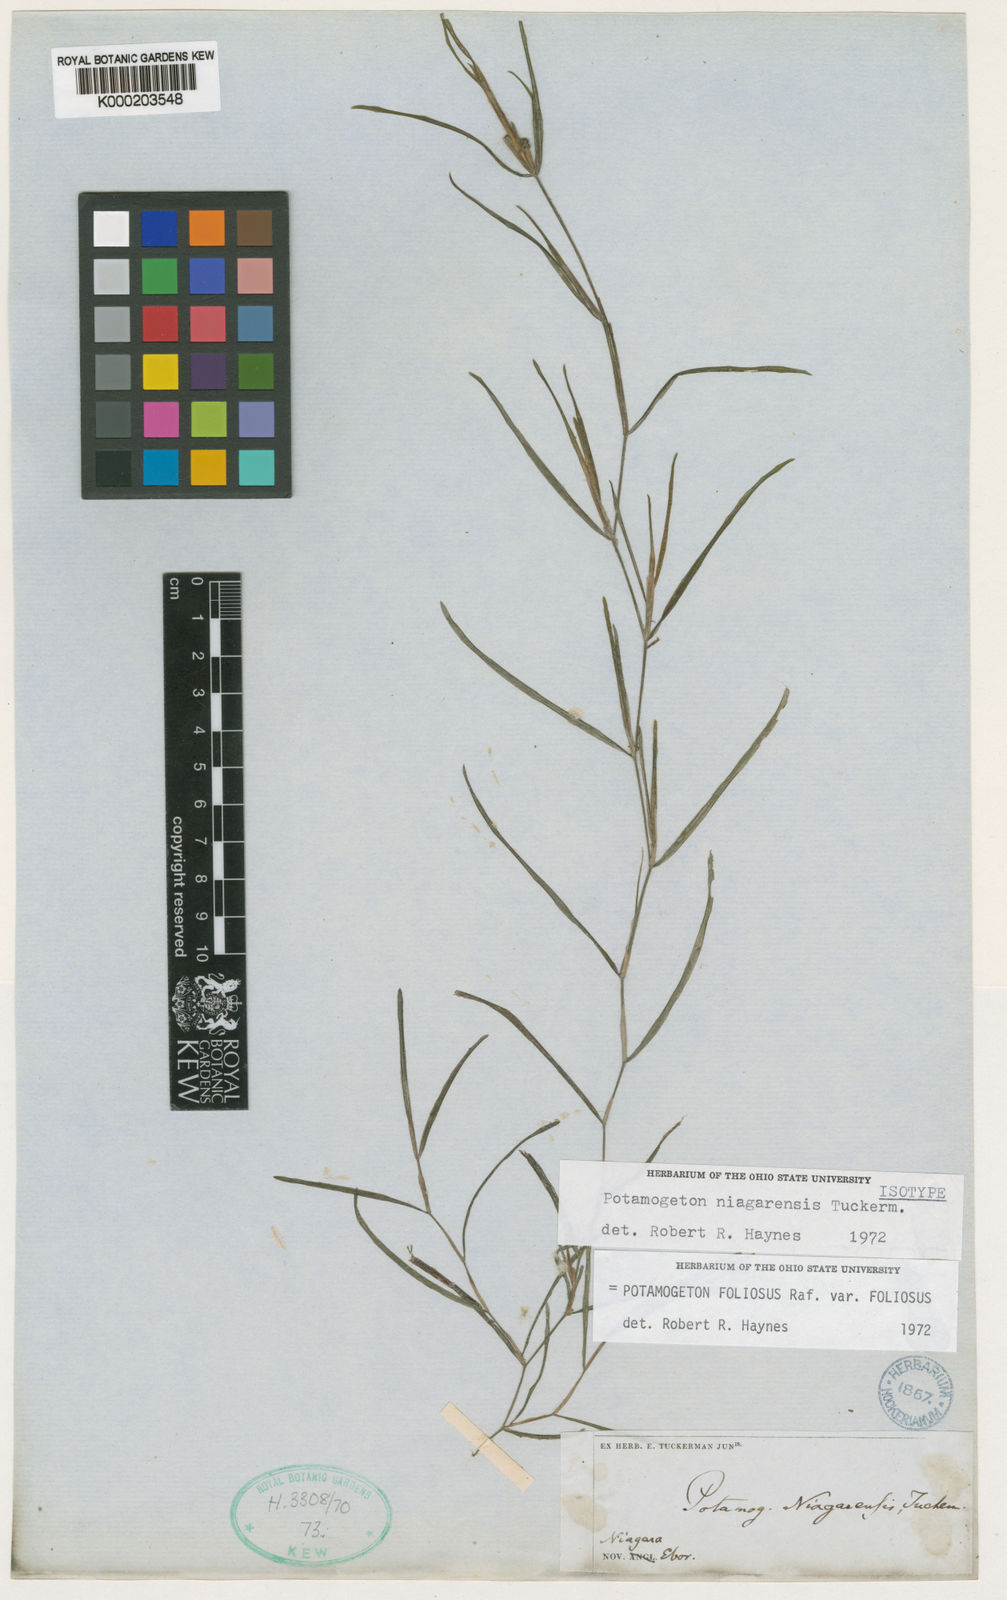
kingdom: Plantae
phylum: Tracheophyta
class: Liliopsida
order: Alismatales
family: Potamogetonaceae
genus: Potamogeton
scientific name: Potamogeton foliosus
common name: Leafy pondweed
